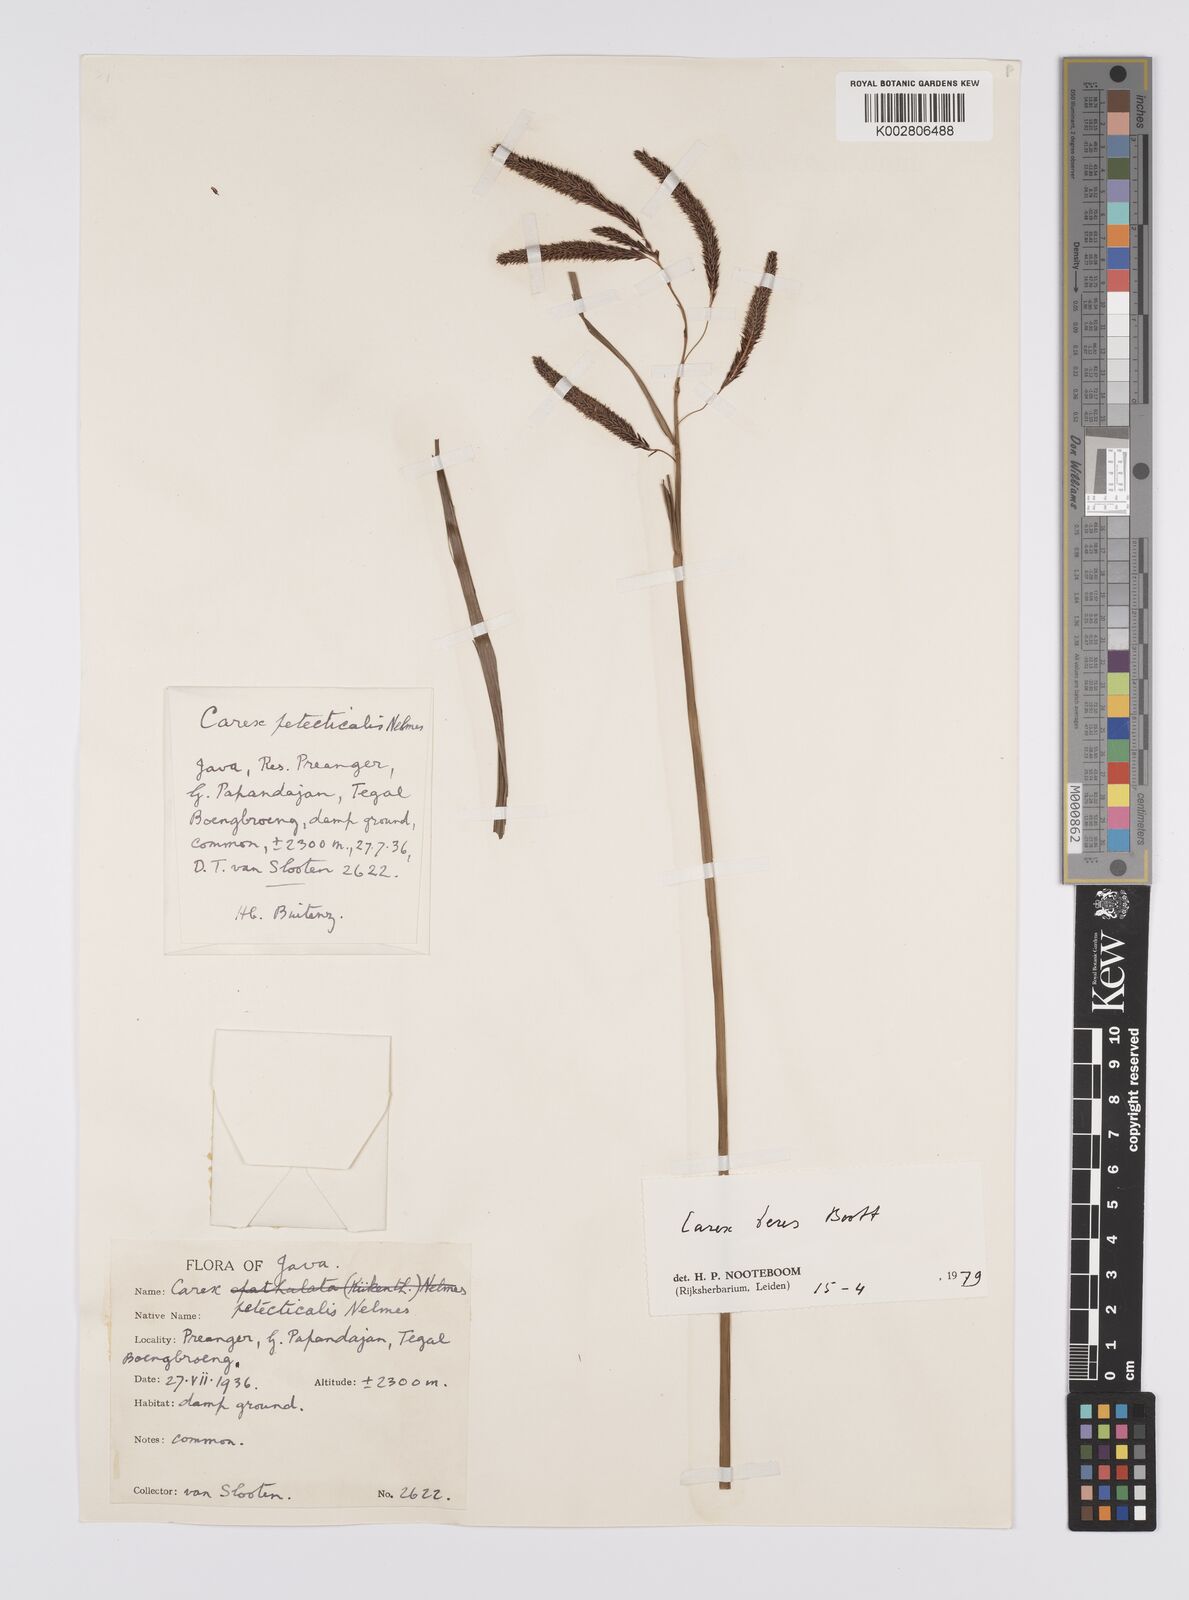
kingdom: Plantae
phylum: Tracheophyta
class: Liliopsida
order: Poales
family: Cyperaceae
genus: Carex
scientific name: Carex teres
